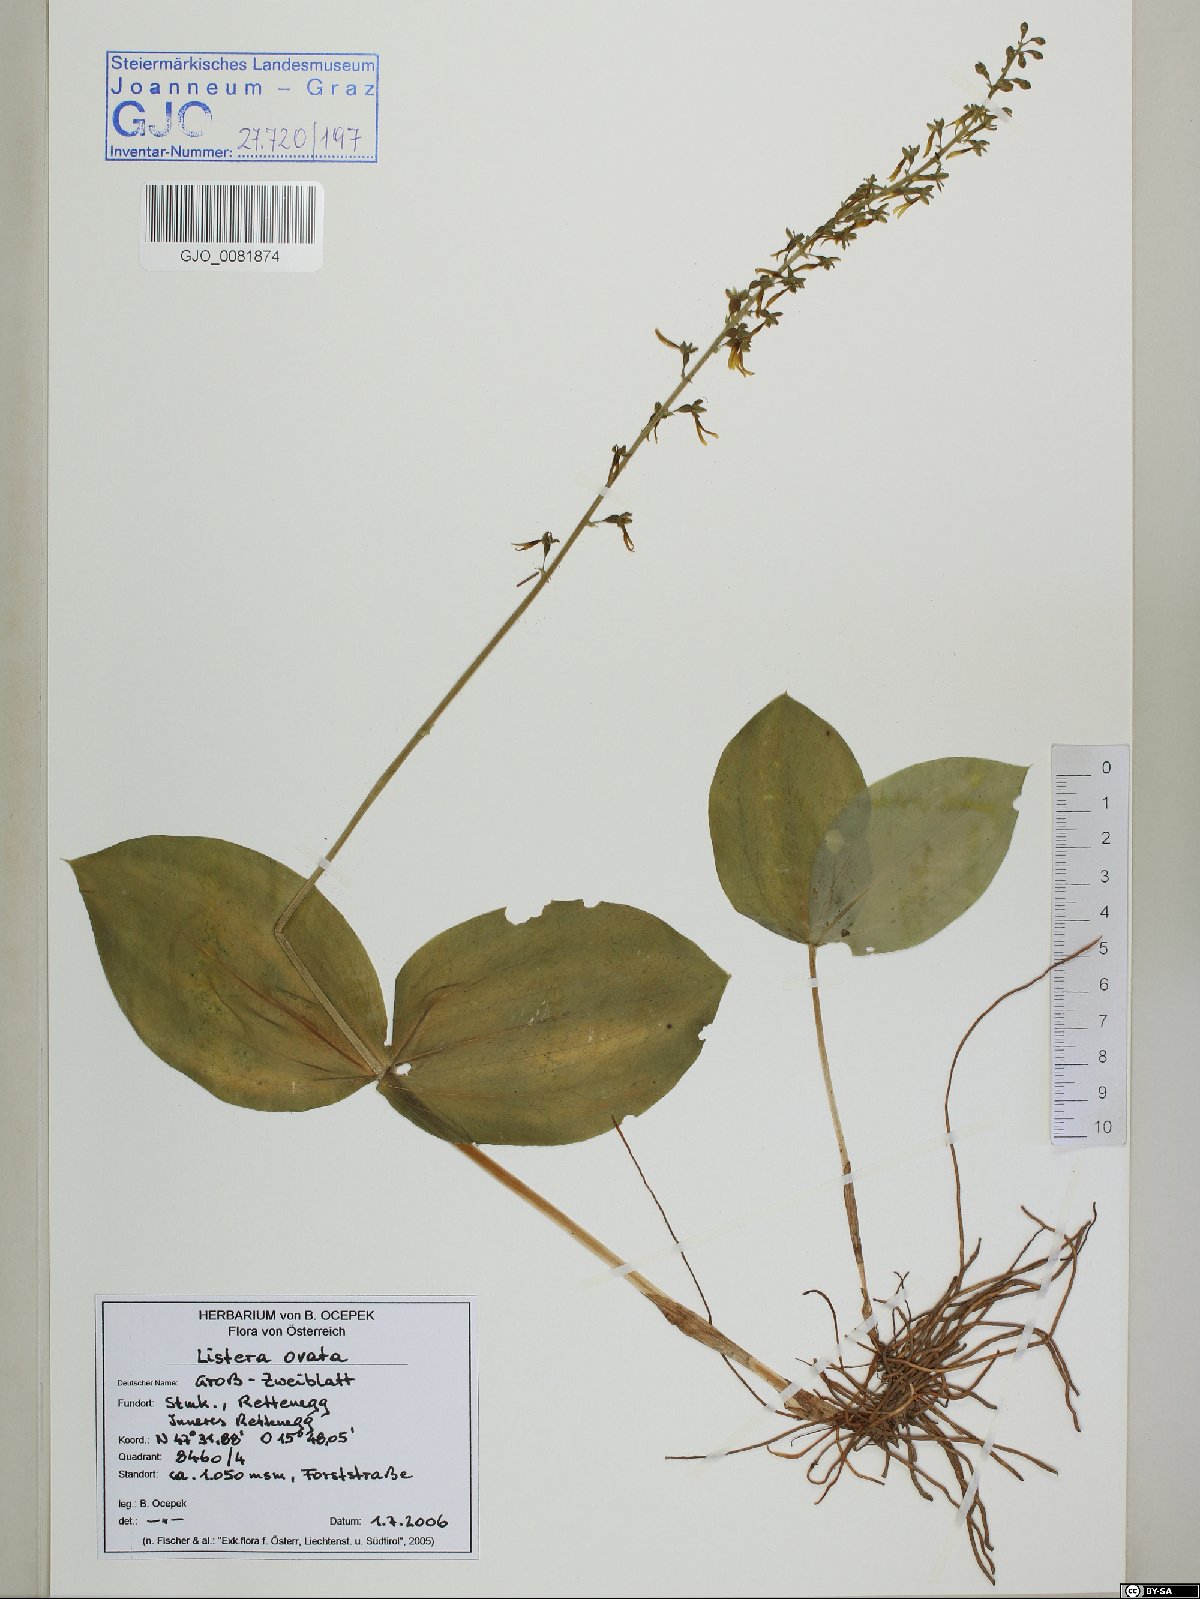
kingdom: Plantae
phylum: Tracheophyta
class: Liliopsida
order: Asparagales
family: Orchidaceae
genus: Neottia
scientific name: Neottia ovata
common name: Common twayblade
